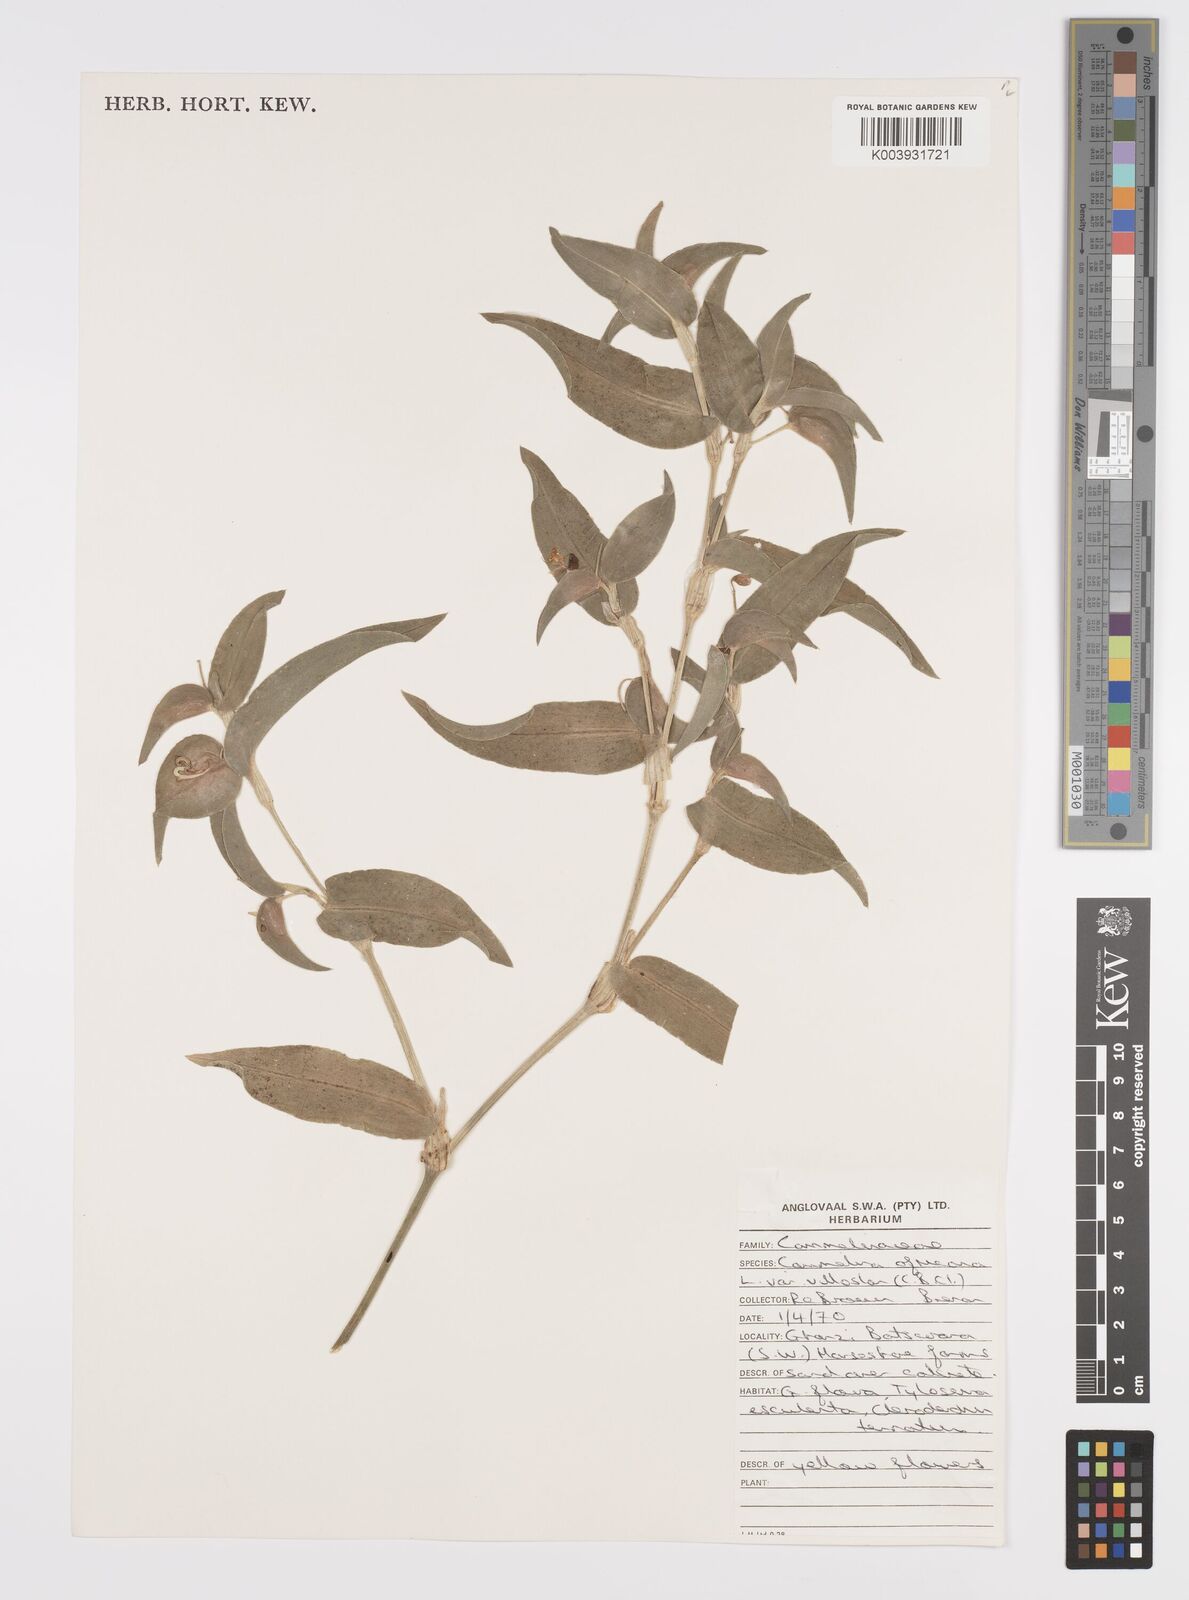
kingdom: Plantae
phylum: Tracheophyta
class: Liliopsida
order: Commelinales
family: Commelinaceae
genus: Commelina
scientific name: Commelina africana
